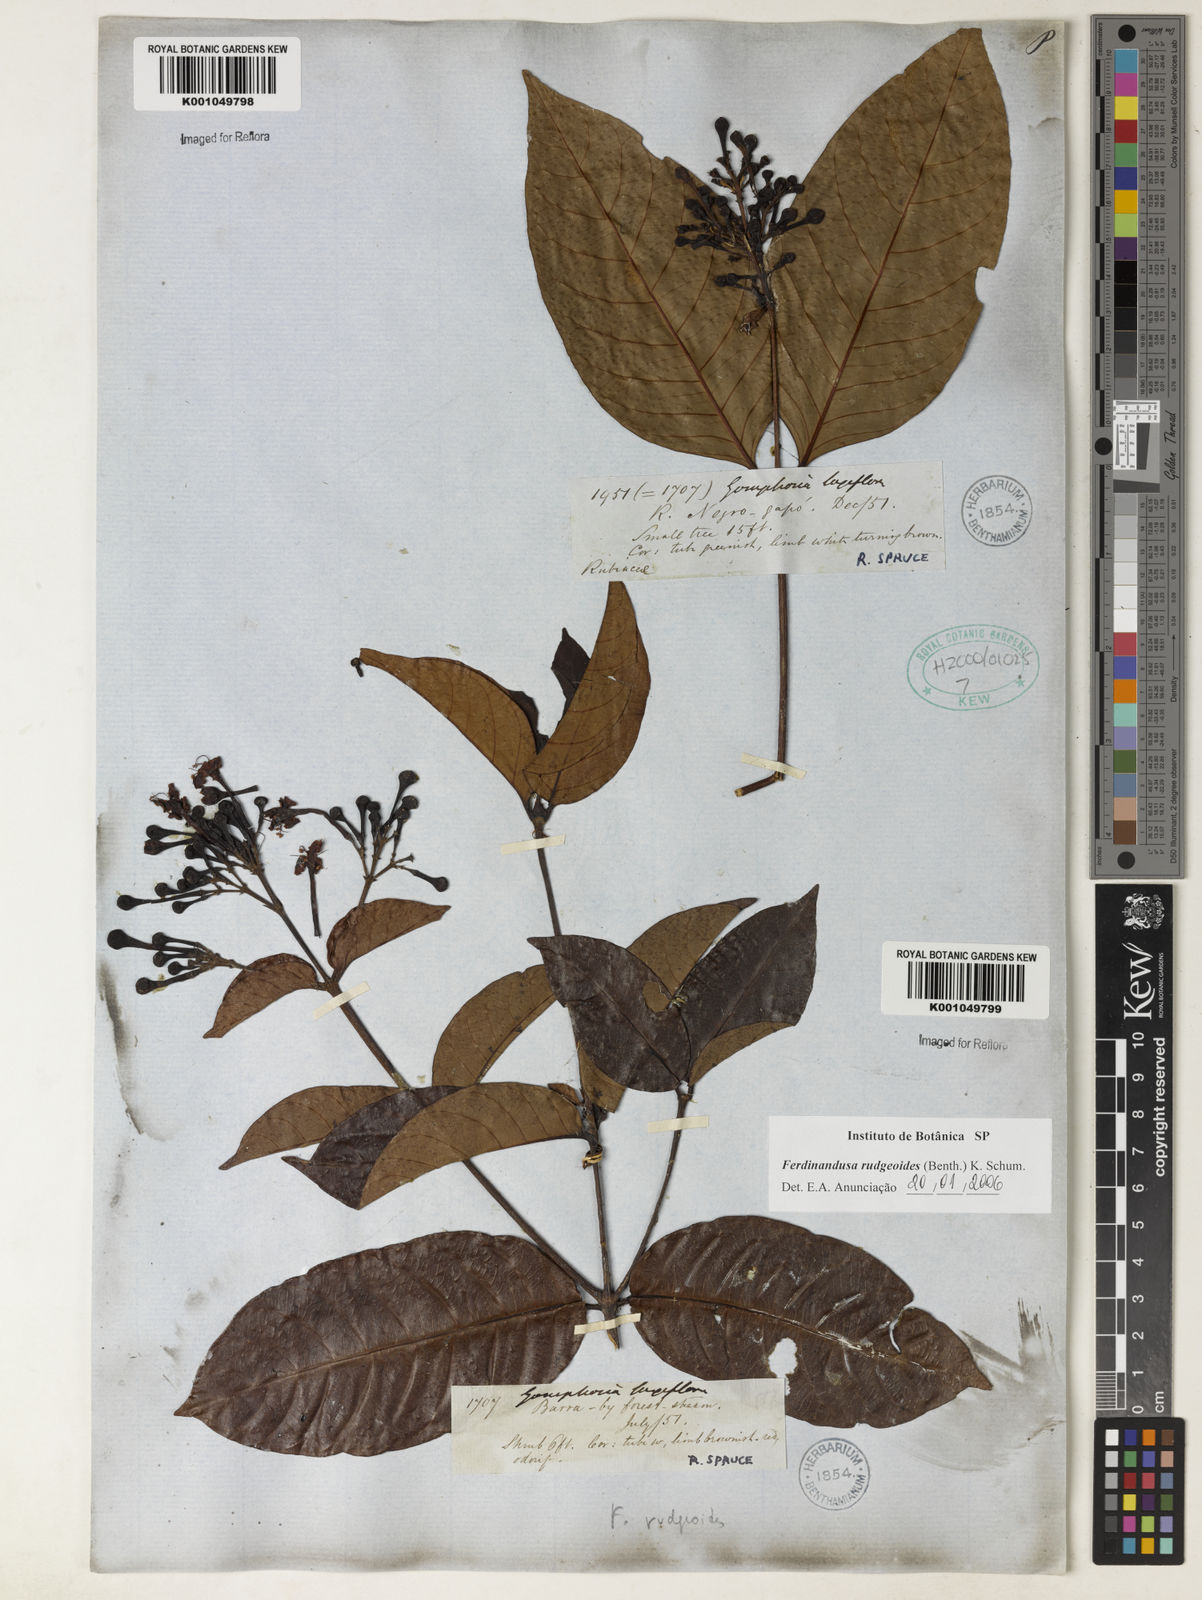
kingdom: Plantae
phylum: Tracheophyta
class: Magnoliopsida
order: Gentianales
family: Rubiaceae
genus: Ferdinandusa
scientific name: Ferdinandusa rudgeoides
